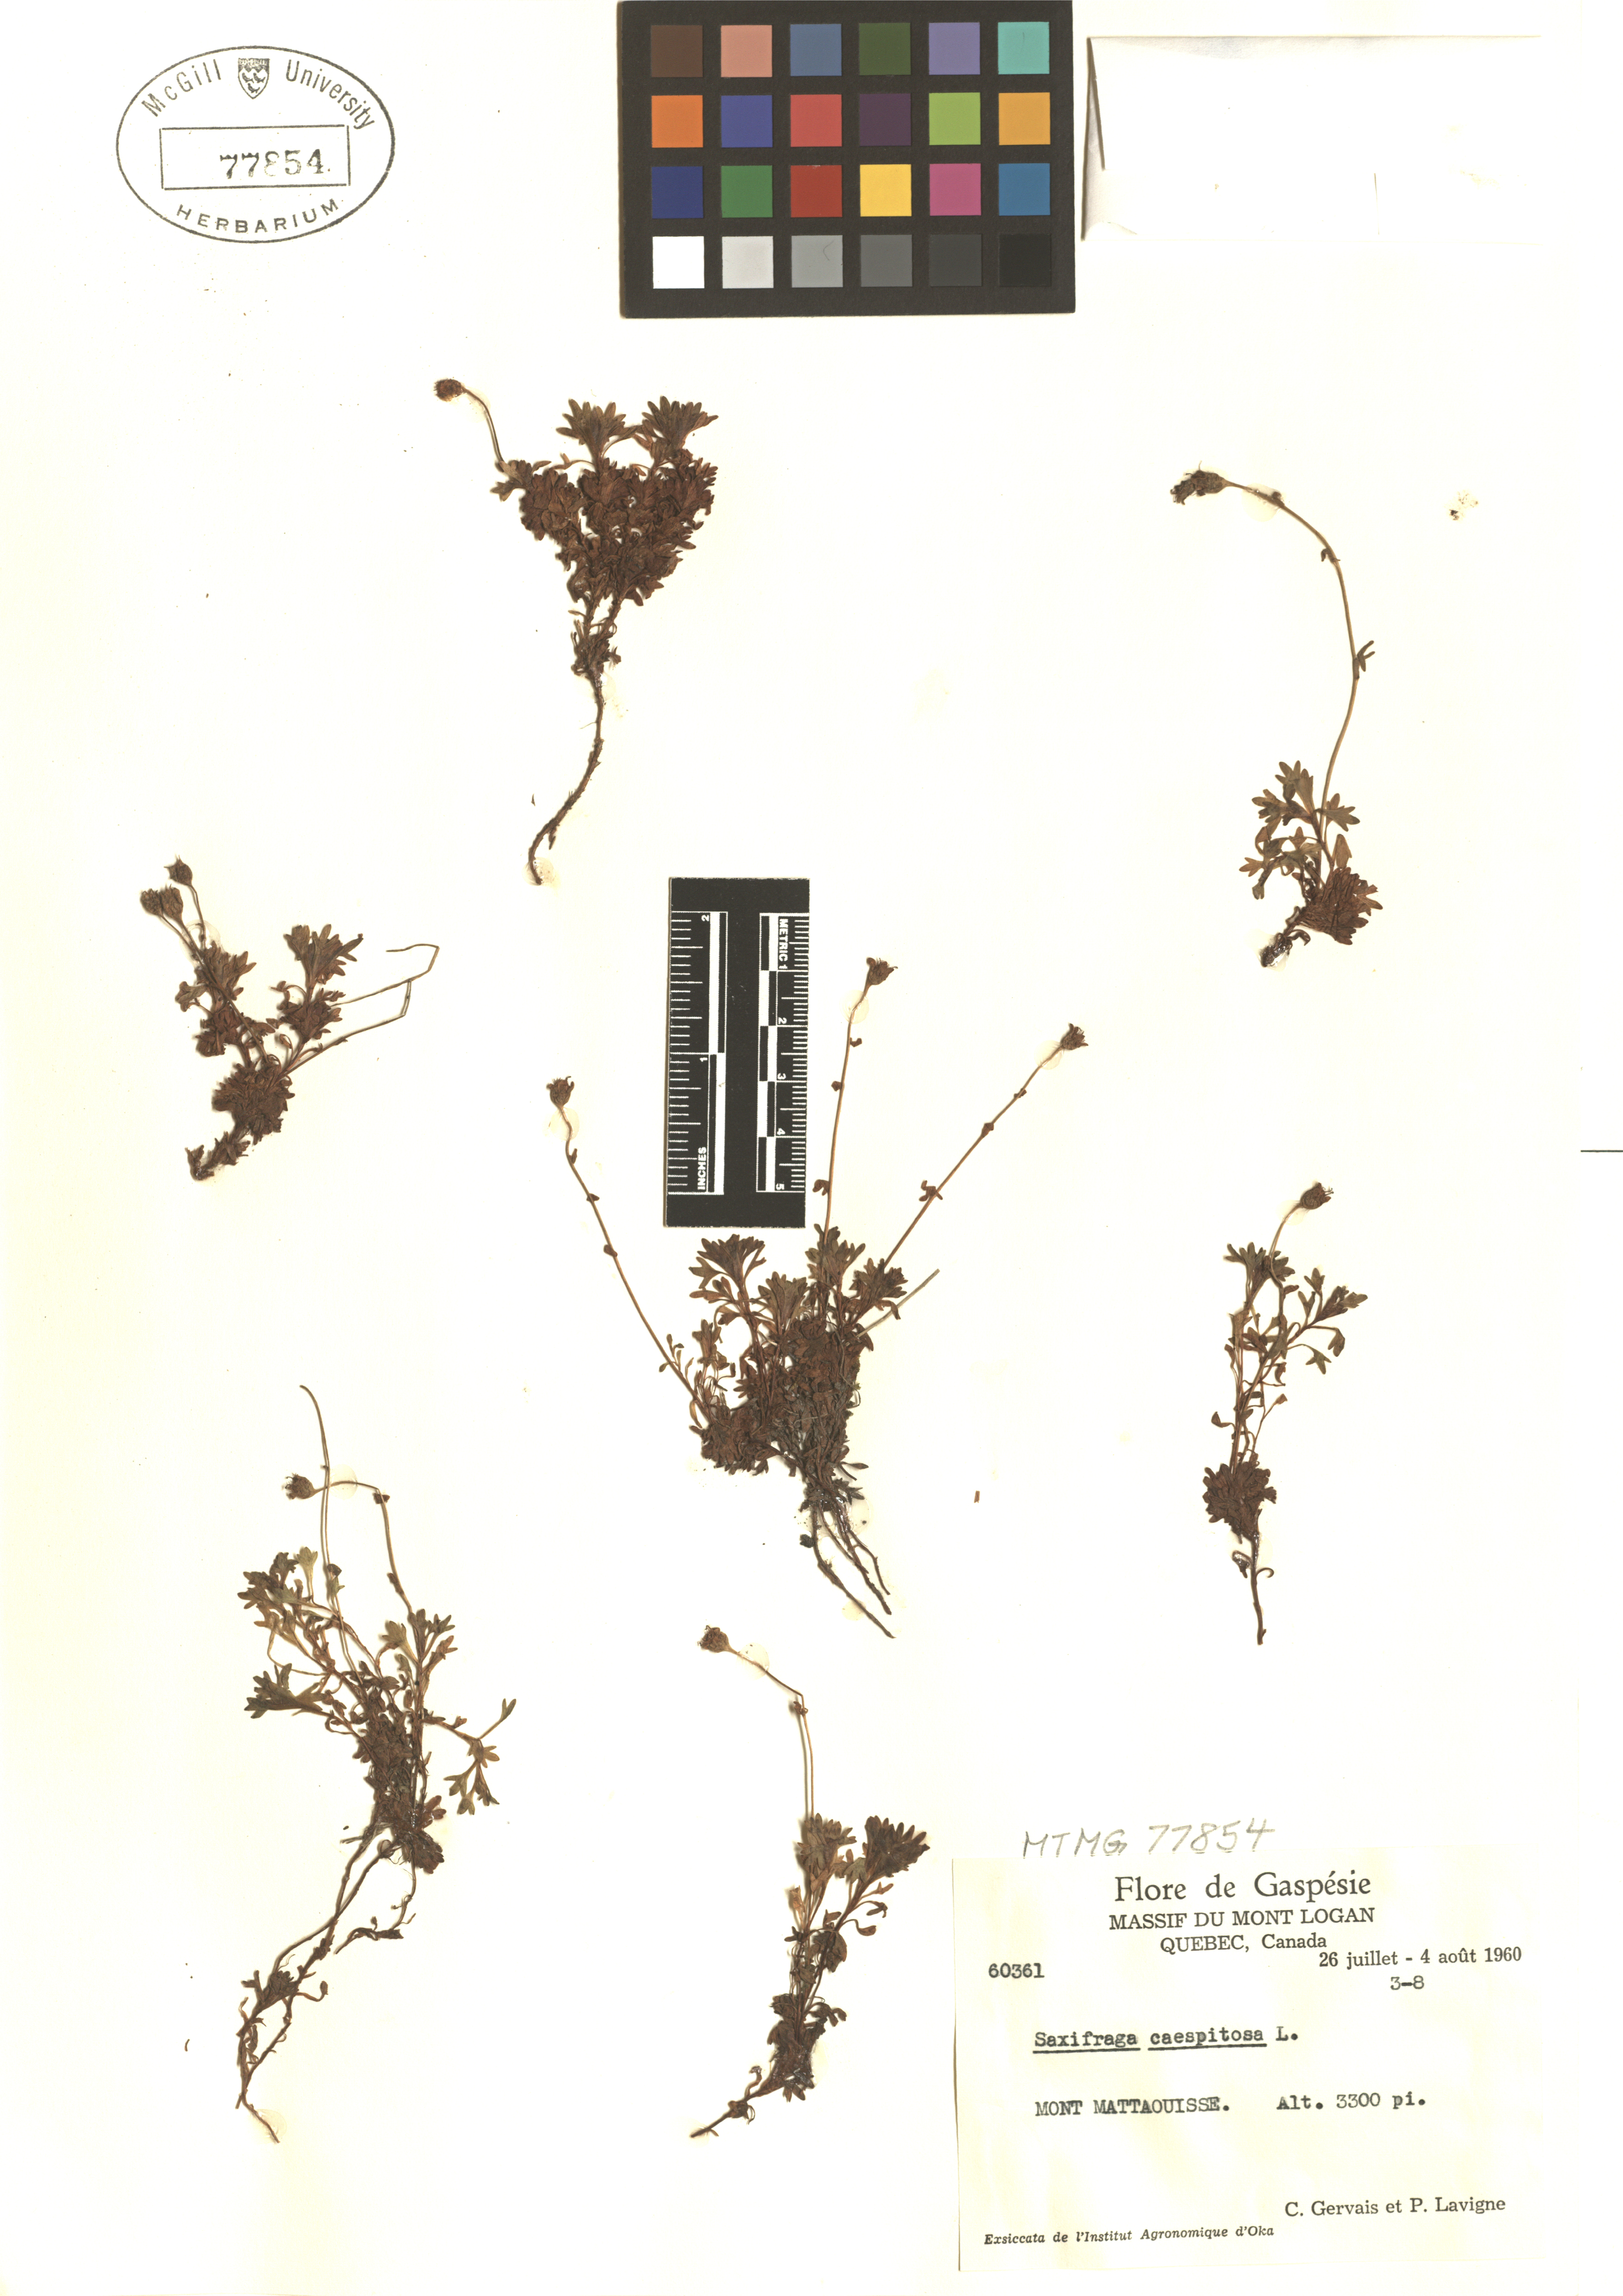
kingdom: Plantae
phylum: Tracheophyta
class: Magnoliopsida
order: Saxifragales
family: Saxifragaceae
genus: Saxifraga
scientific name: Saxifraga cespitosa
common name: Tufted saxifrage
